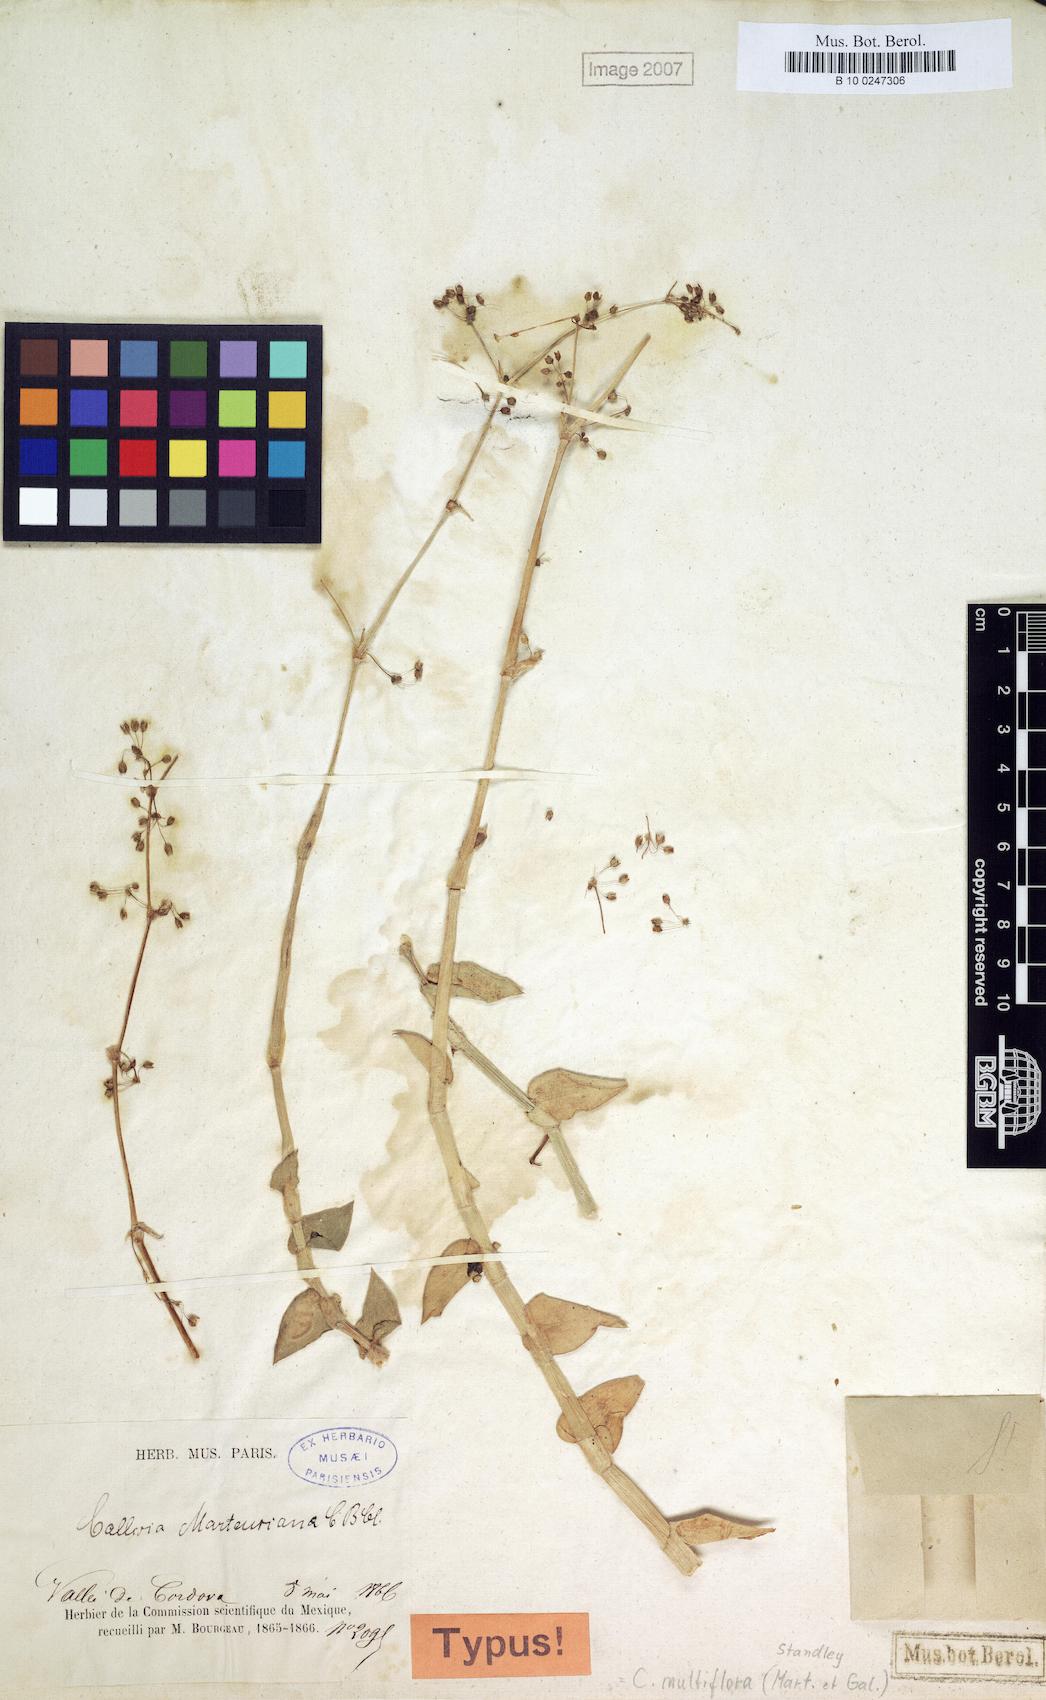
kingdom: Plantae
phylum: Tracheophyta
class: Liliopsida
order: Commelinales
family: Commelinaceae
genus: Callisia
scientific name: Callisia multiflora
